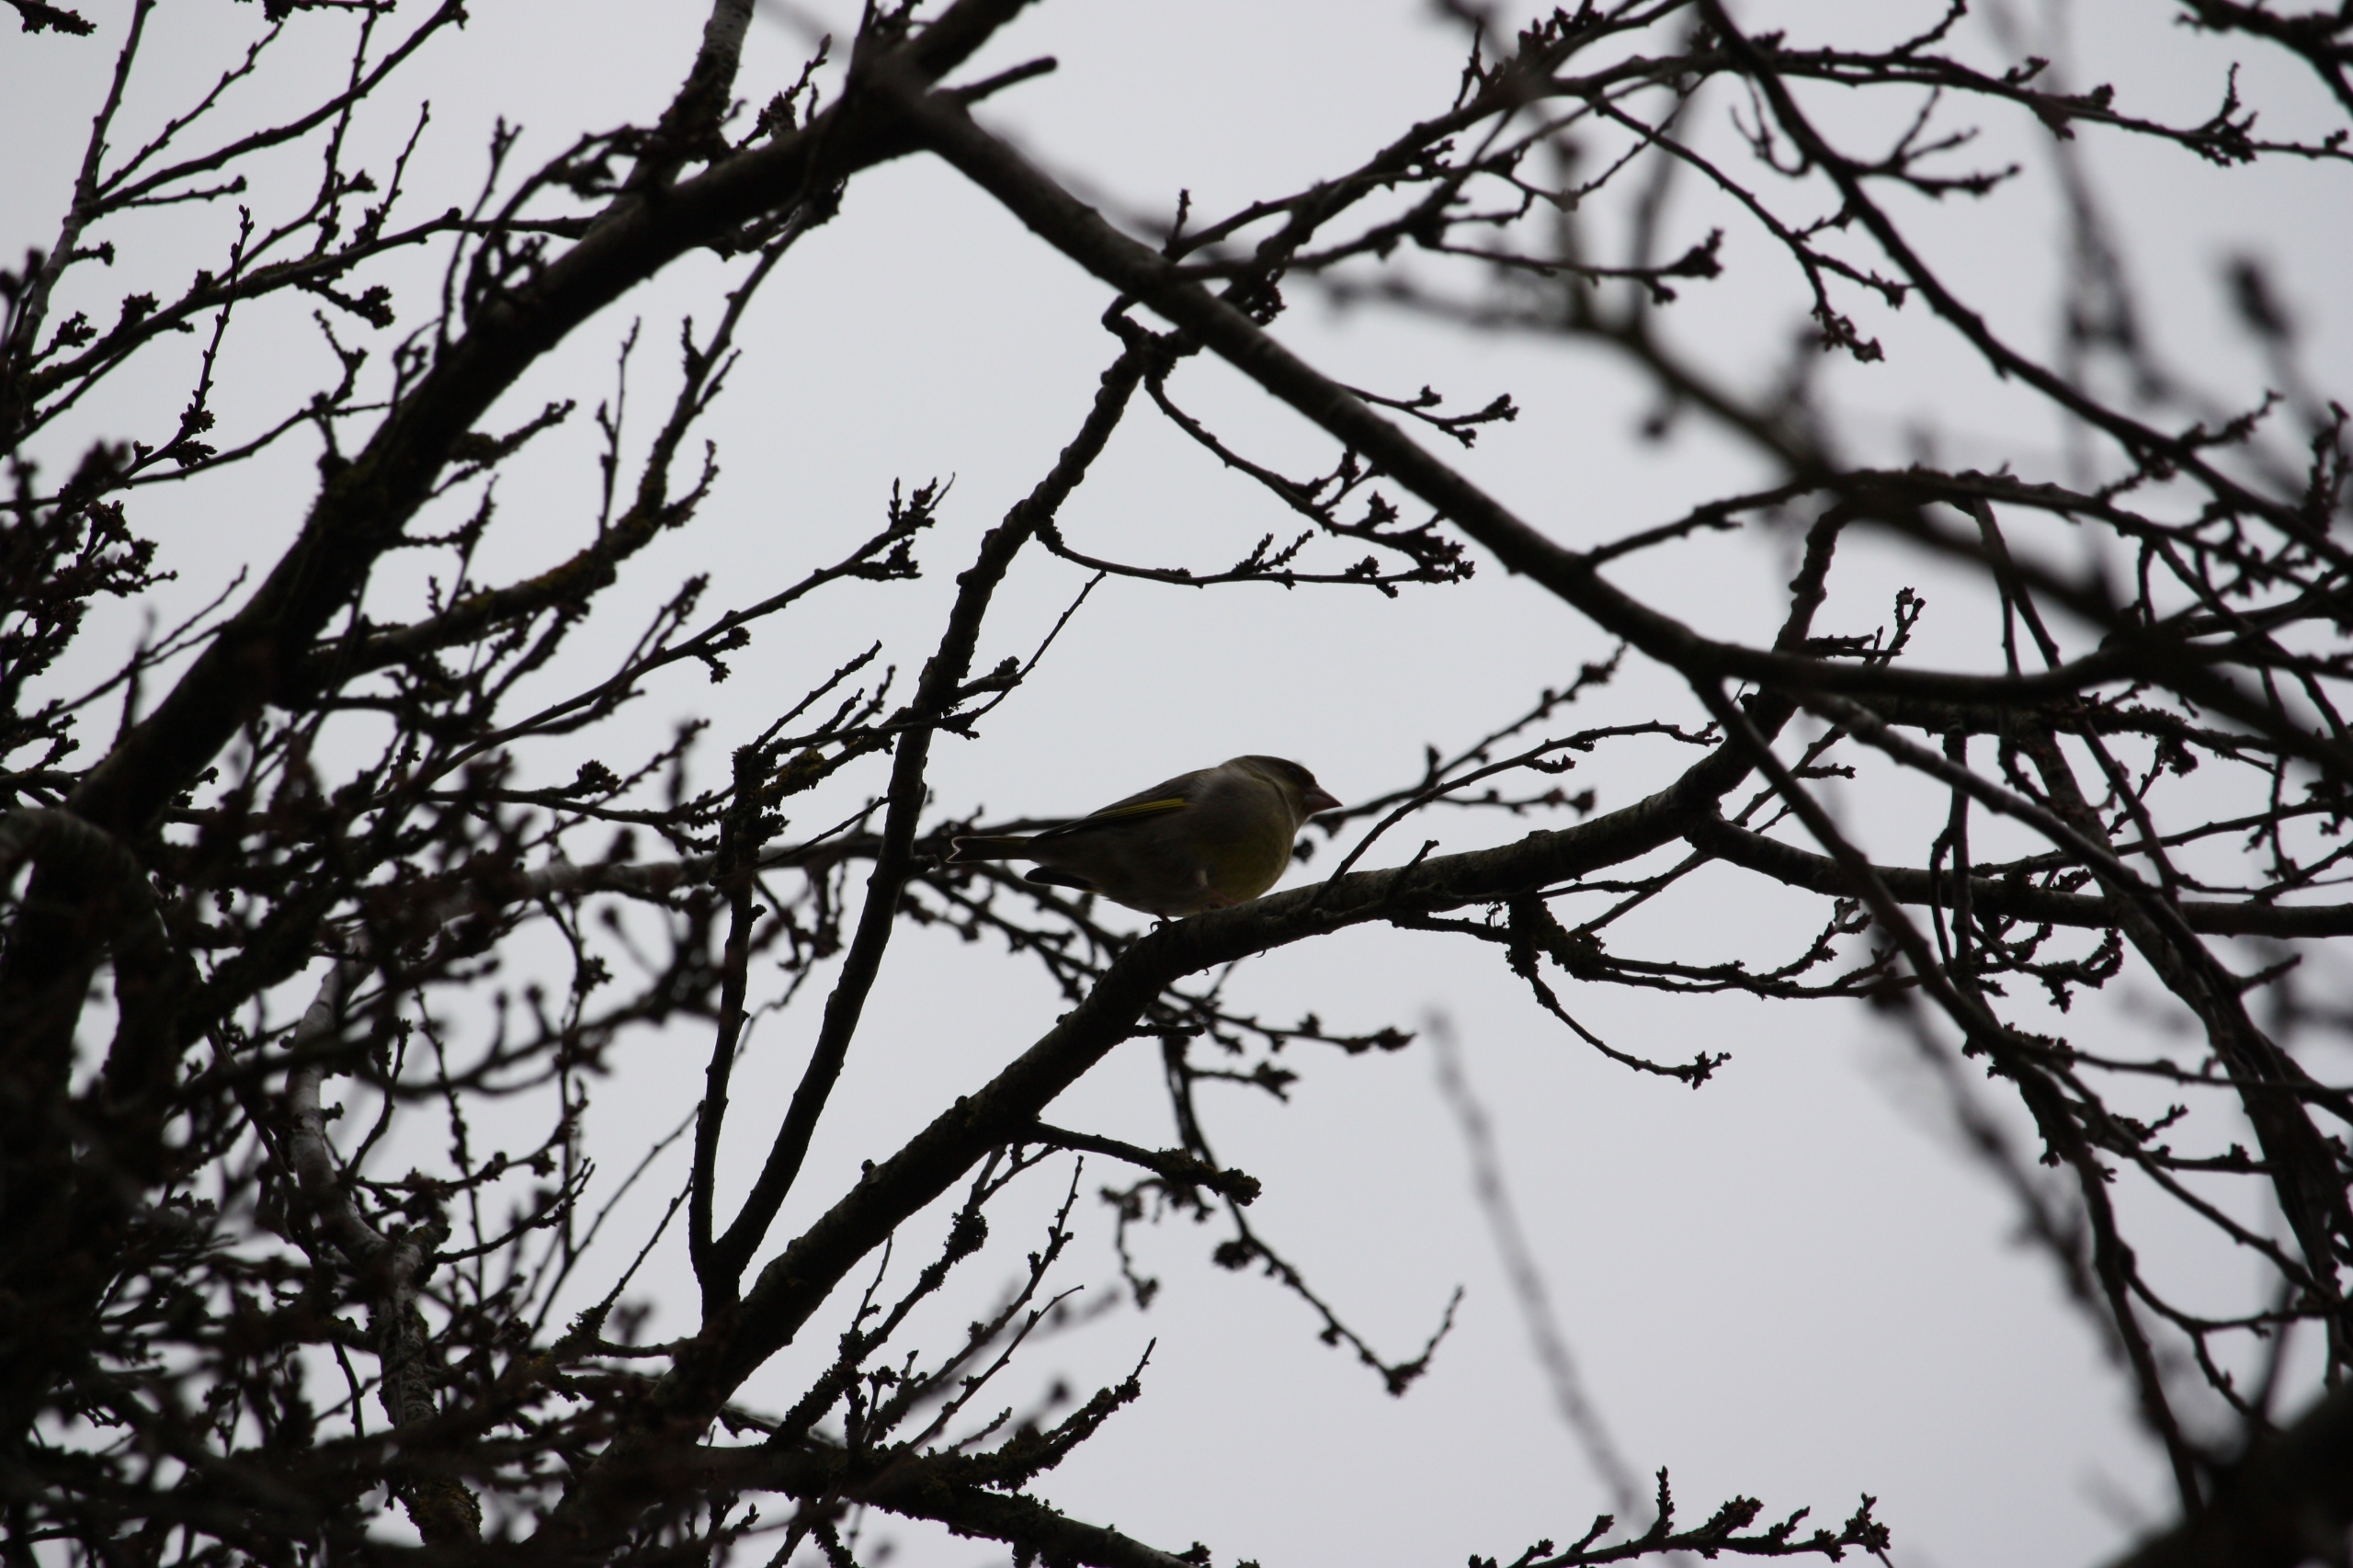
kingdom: Plantae
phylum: Tracheophyta
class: Liliopsida
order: Poales
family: Poaceae
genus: Chloris
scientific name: Chloris chloris
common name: Grønirisk
